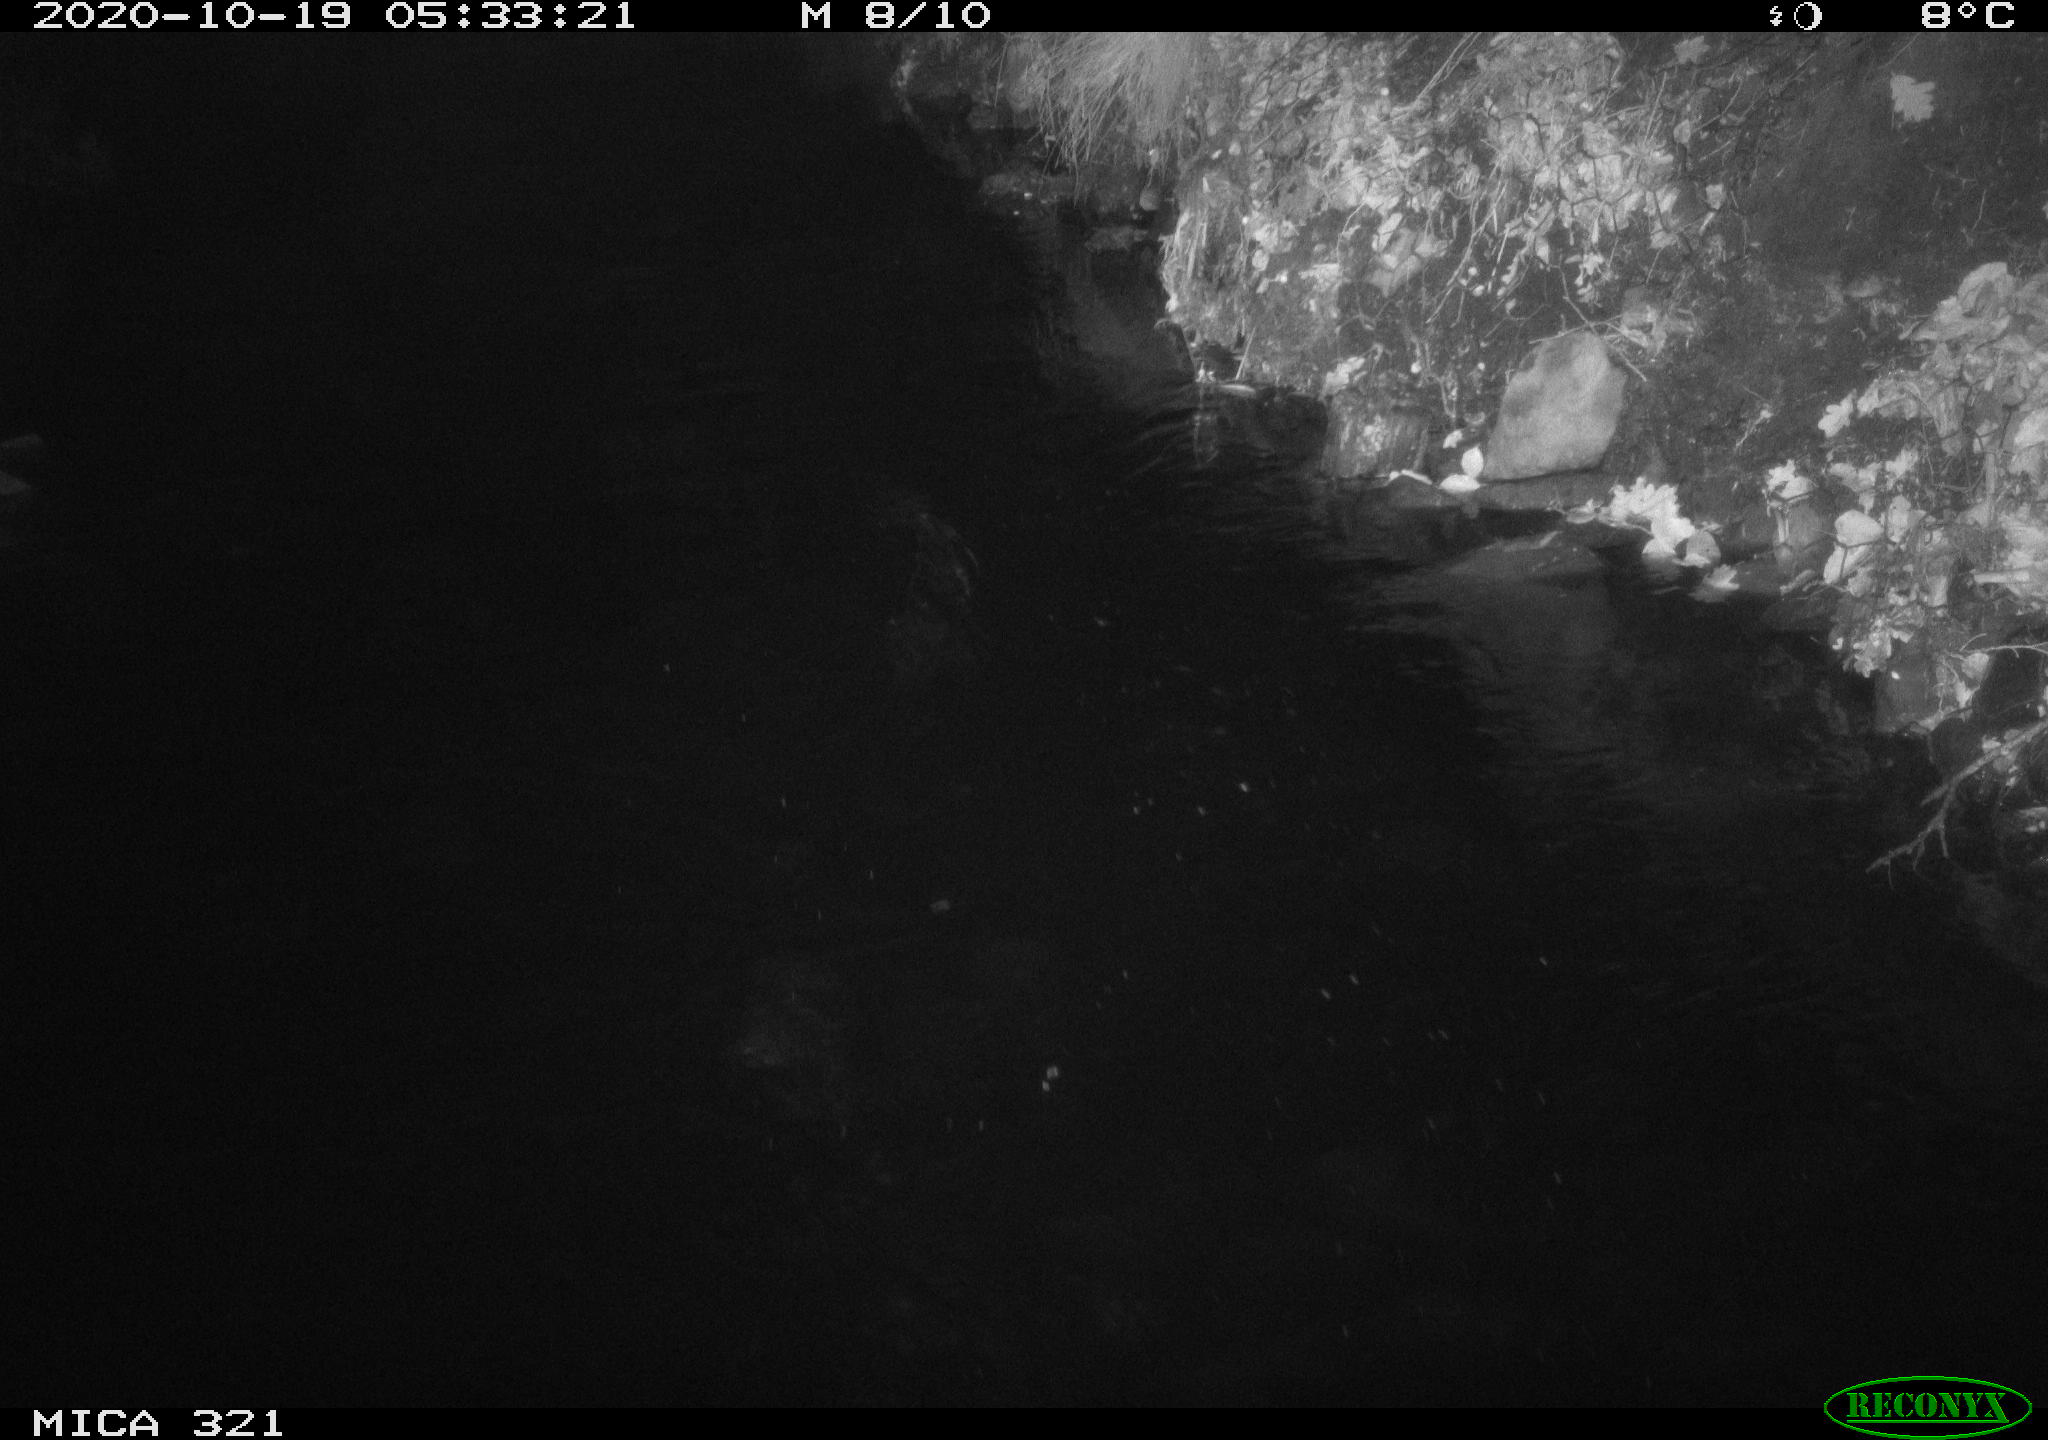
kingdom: Animalia
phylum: Chordata
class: Mammalia
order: Rodentia
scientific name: Rodentia
